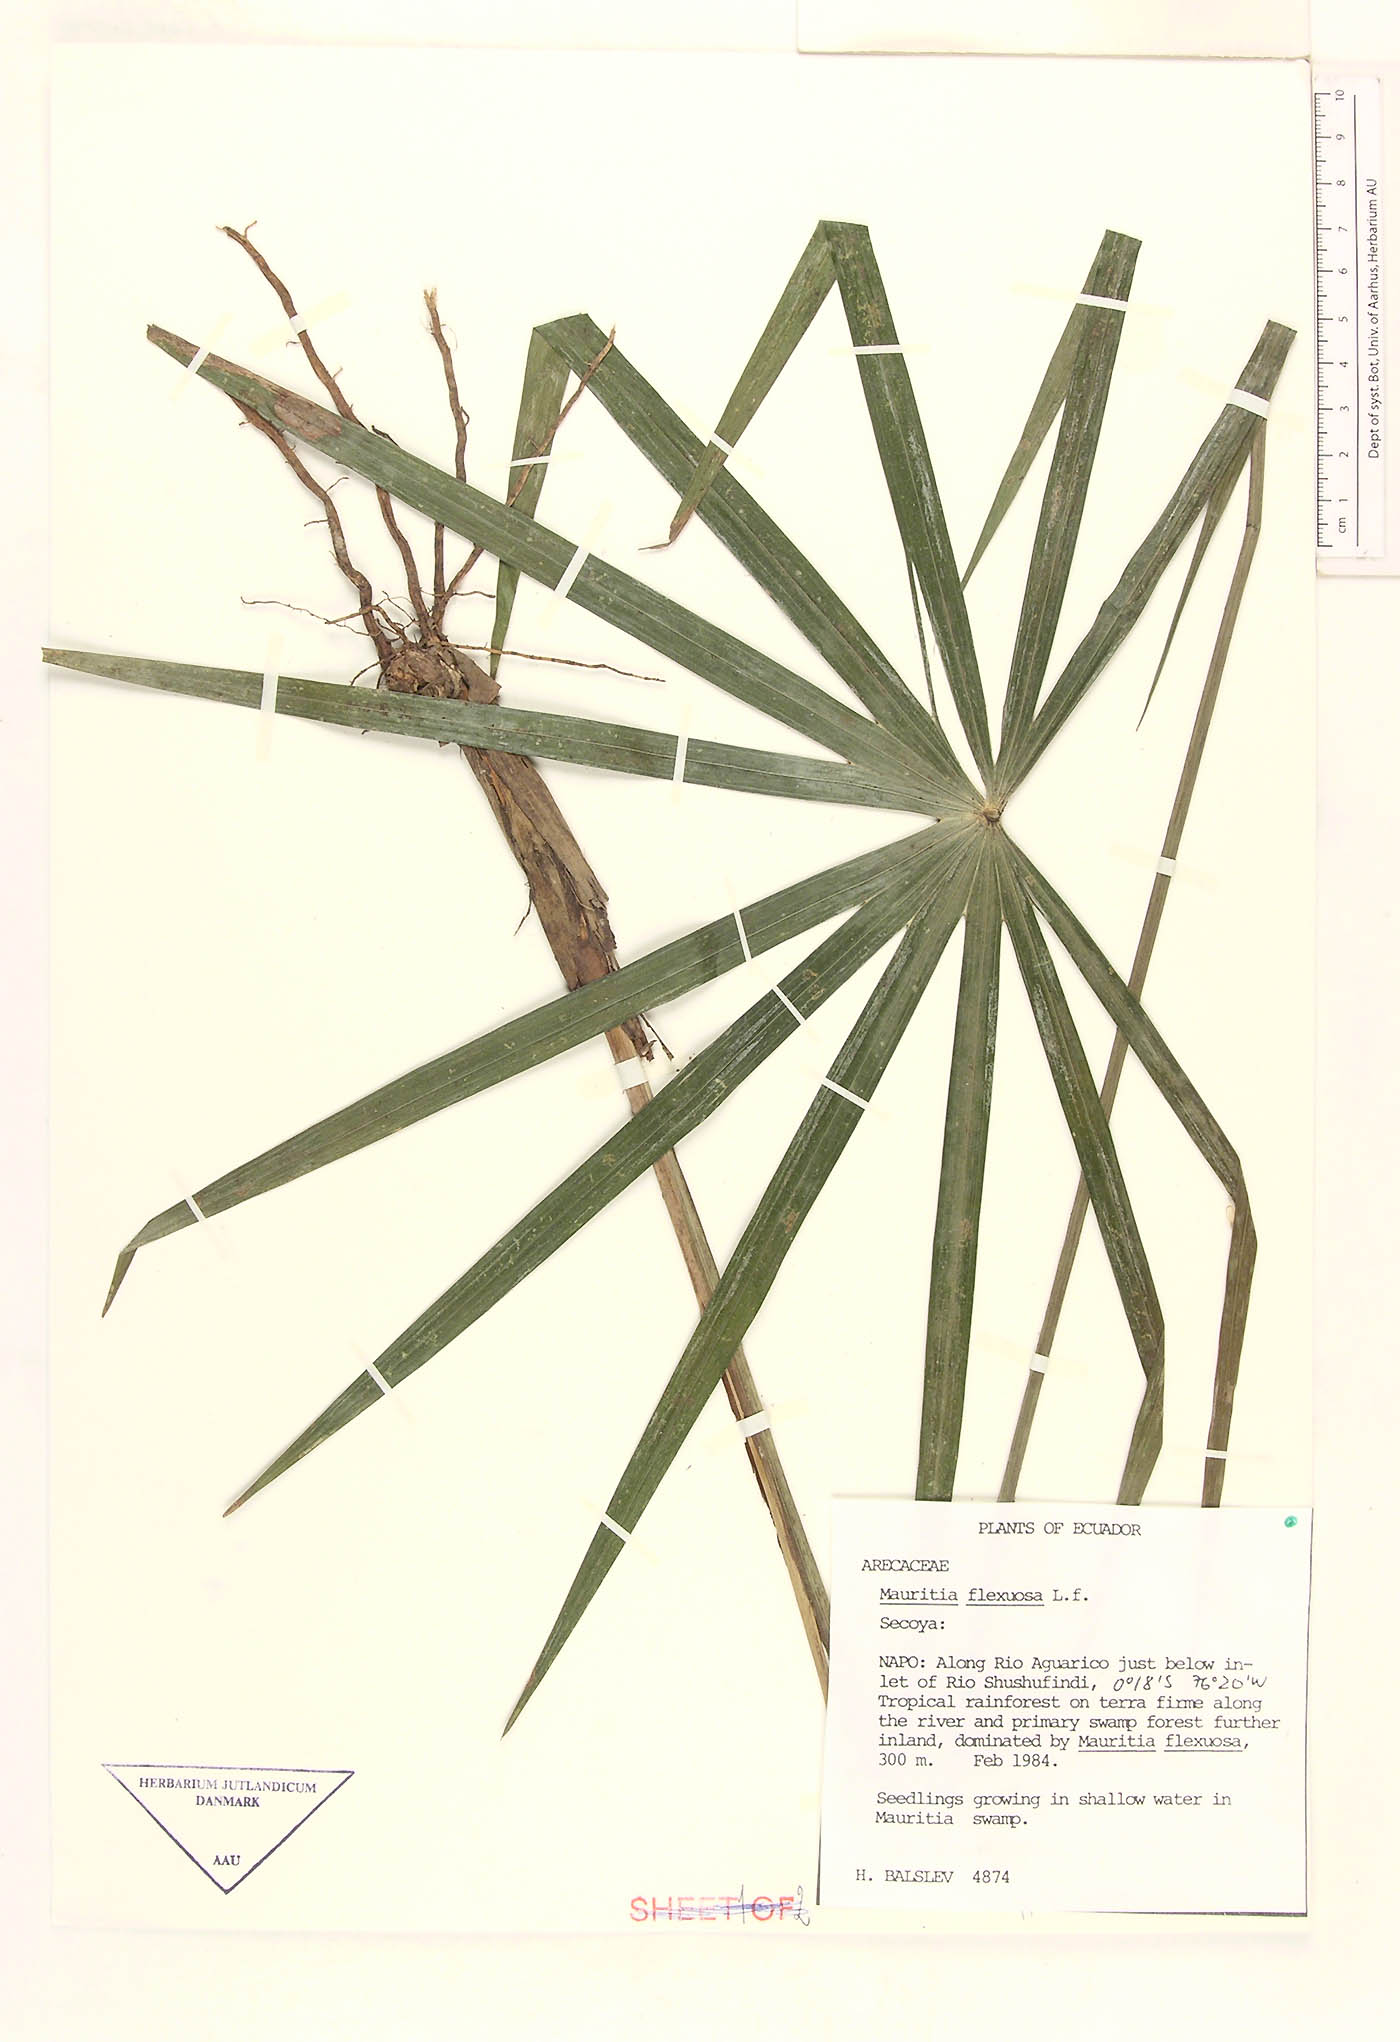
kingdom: Plantae
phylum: Tracheophyta
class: Liliopsida
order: Arecales
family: Arecaceae
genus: Mauritia
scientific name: Mauritia flexuosa
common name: Tree-of-life
